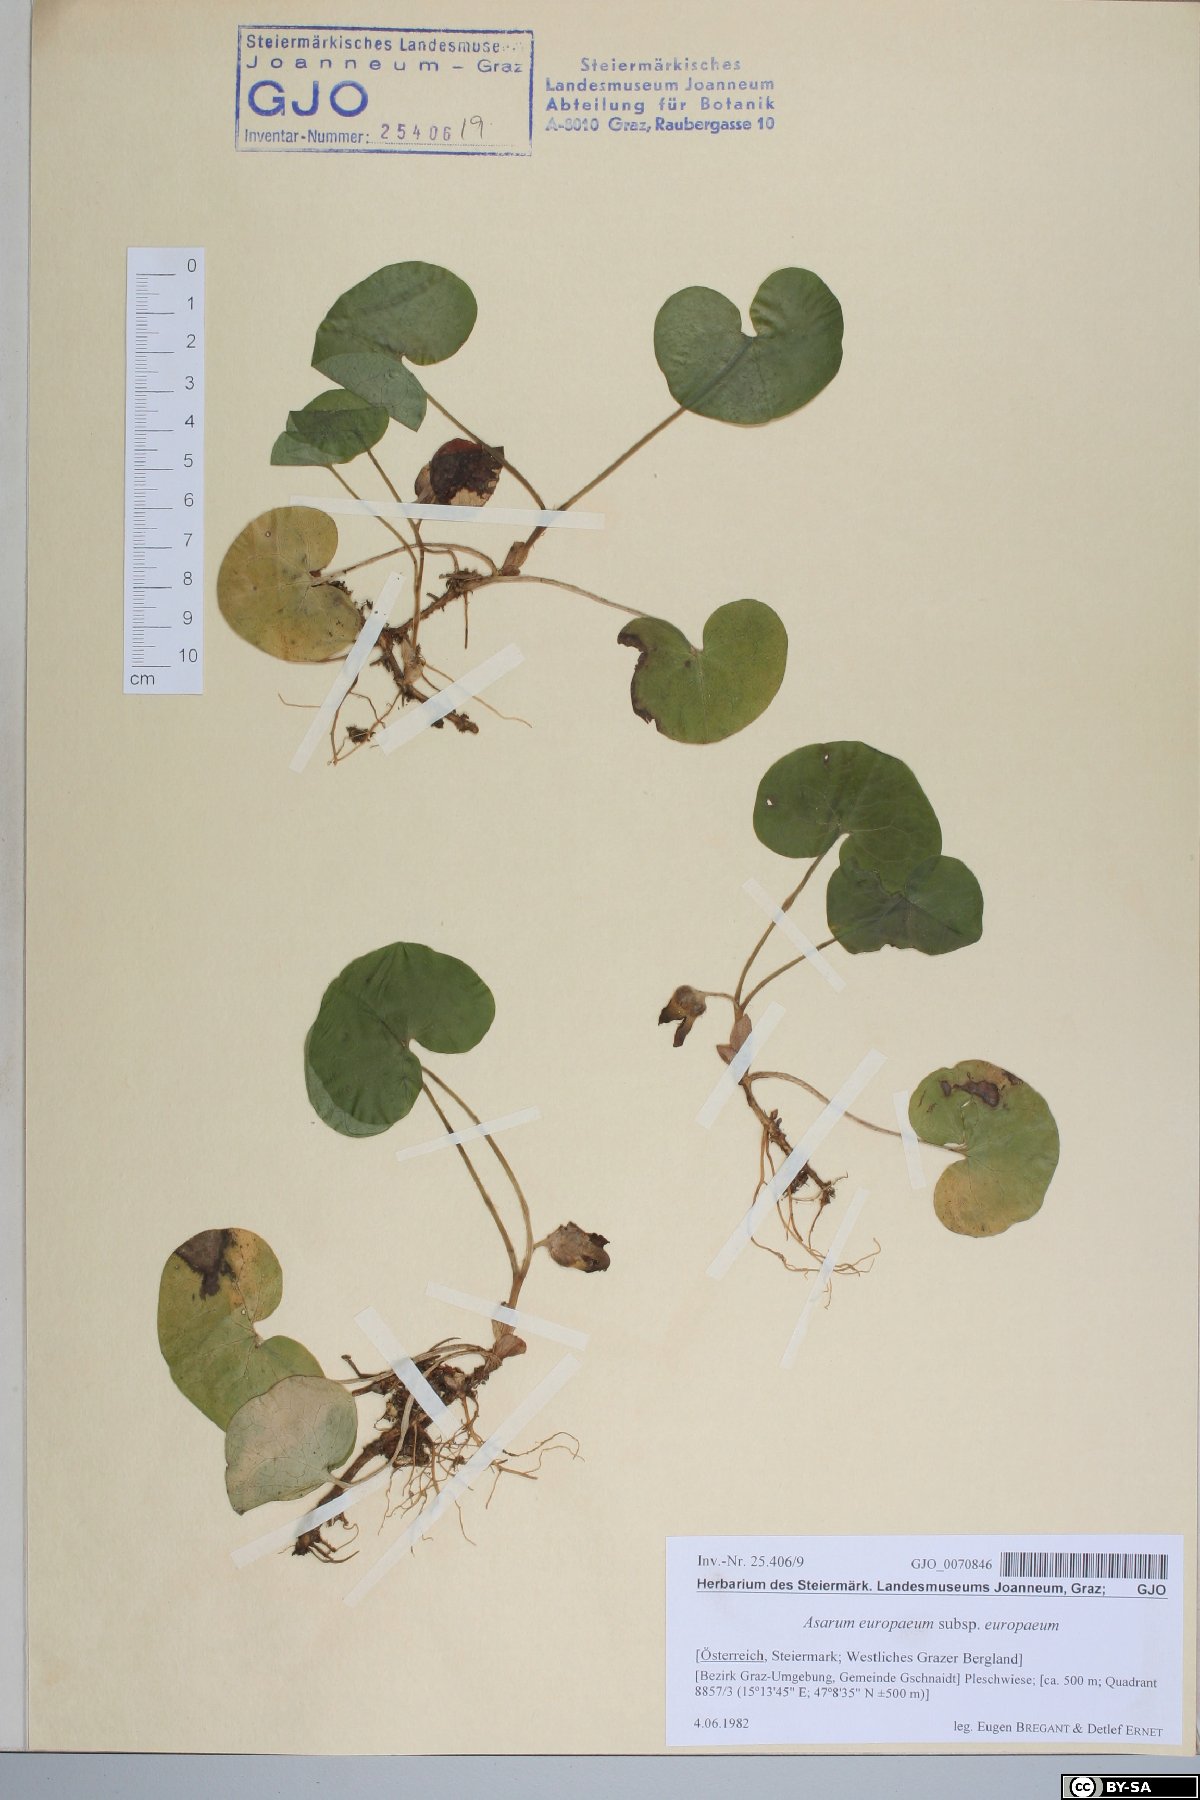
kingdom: Plantae
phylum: Tracheophyta
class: Magnoliopsida
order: Piperales
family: Aristolochiaceae
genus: Asarum
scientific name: Asarum europaeum
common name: Asarabacca
